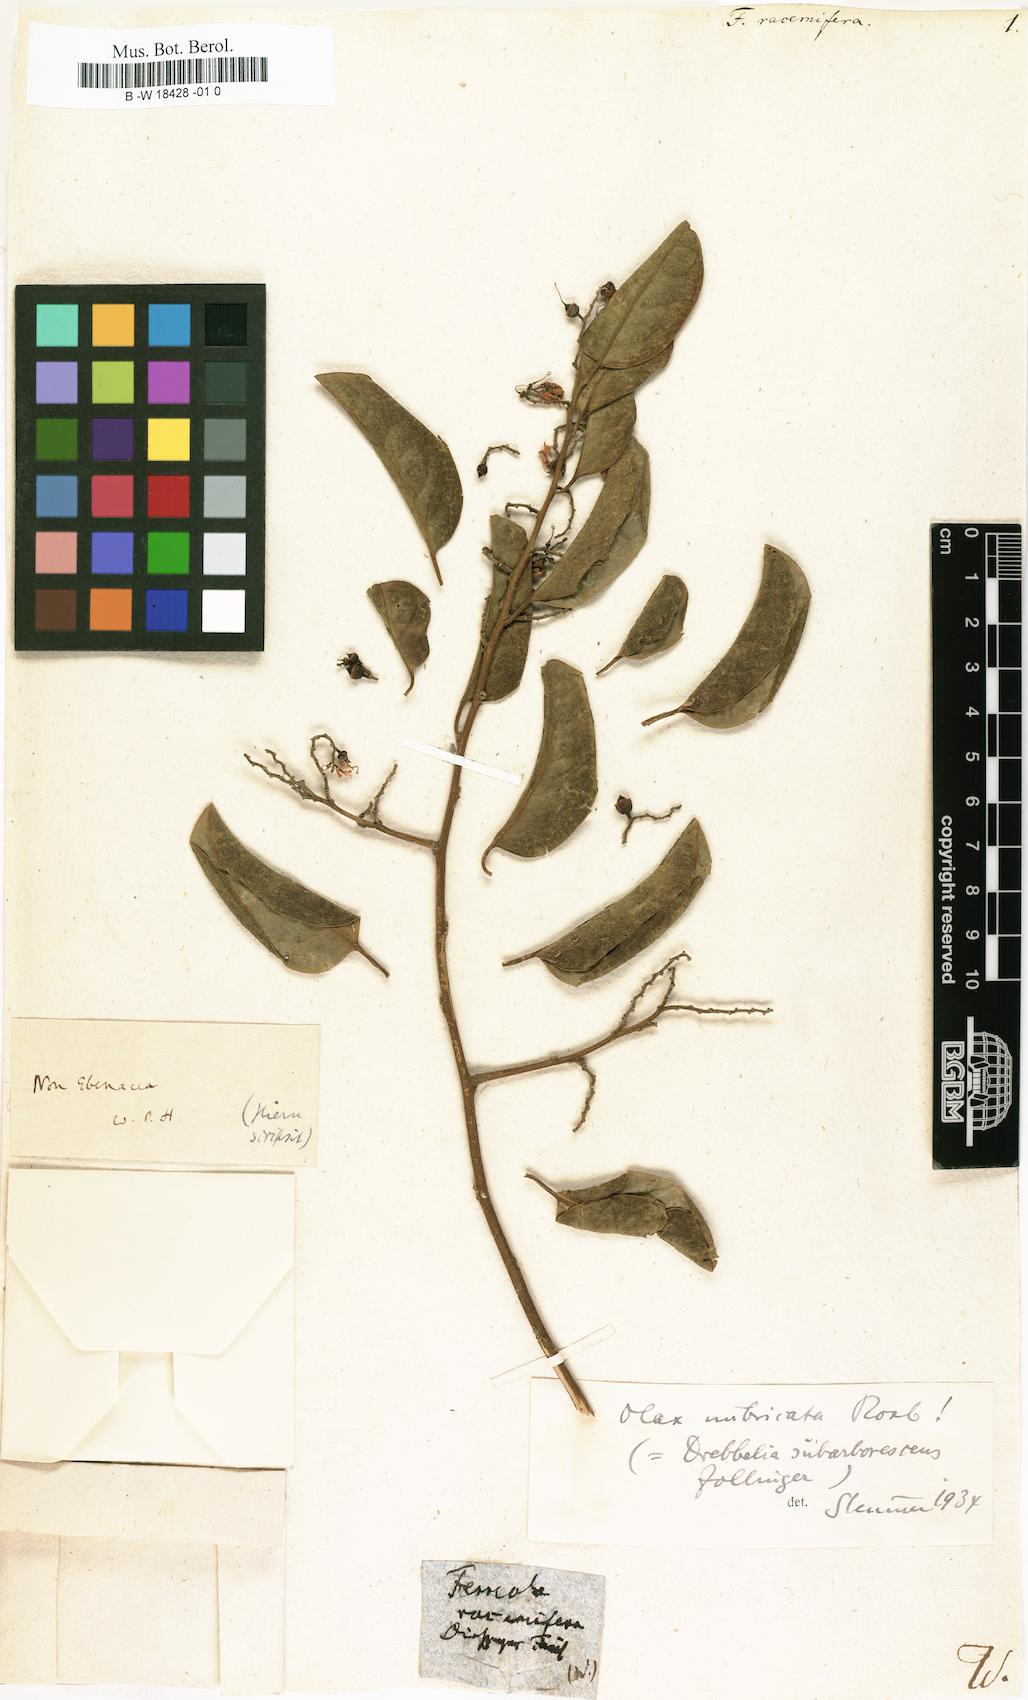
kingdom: Animalia
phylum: Arthropoda
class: Insecta
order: Hymenoptera
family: Pompilidae
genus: Ferreola
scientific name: Ferreola
